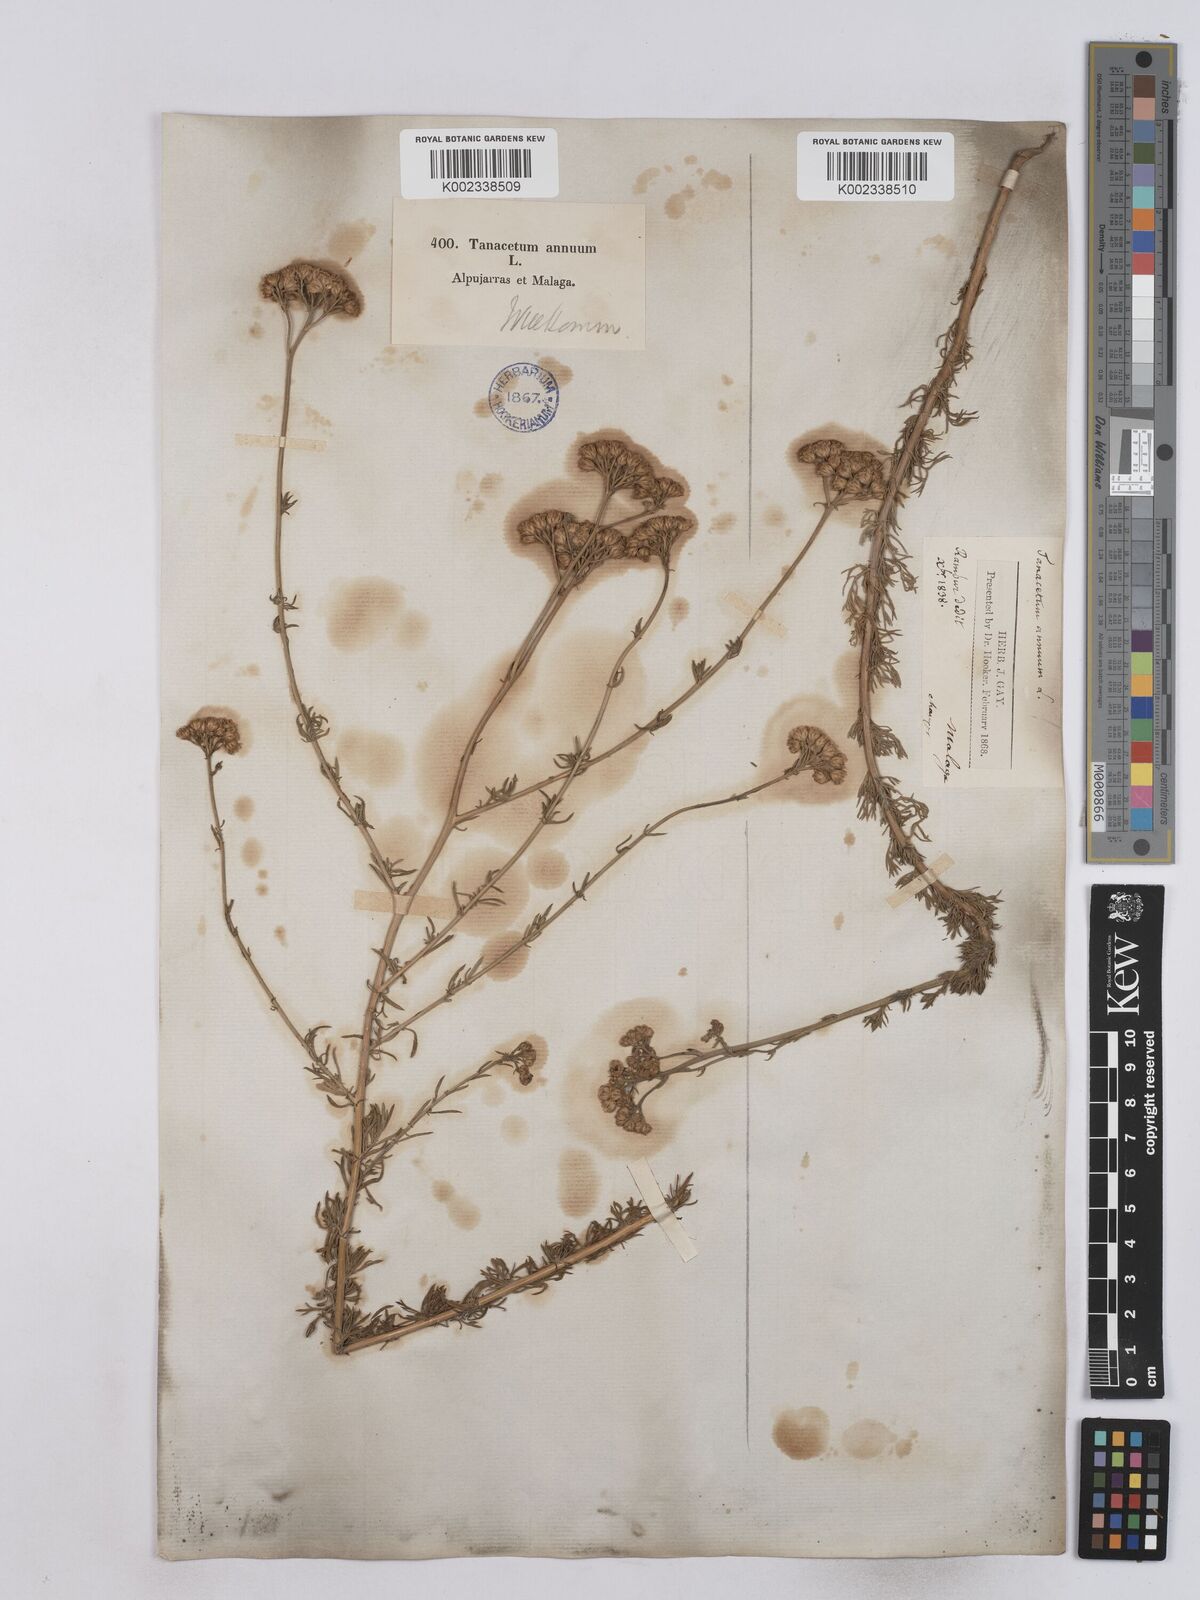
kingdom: Plantae
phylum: Tracheophyta
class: Magnoliopsida
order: Asterales
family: Asteraceae
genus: Vogtia
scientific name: Vogtia annua
